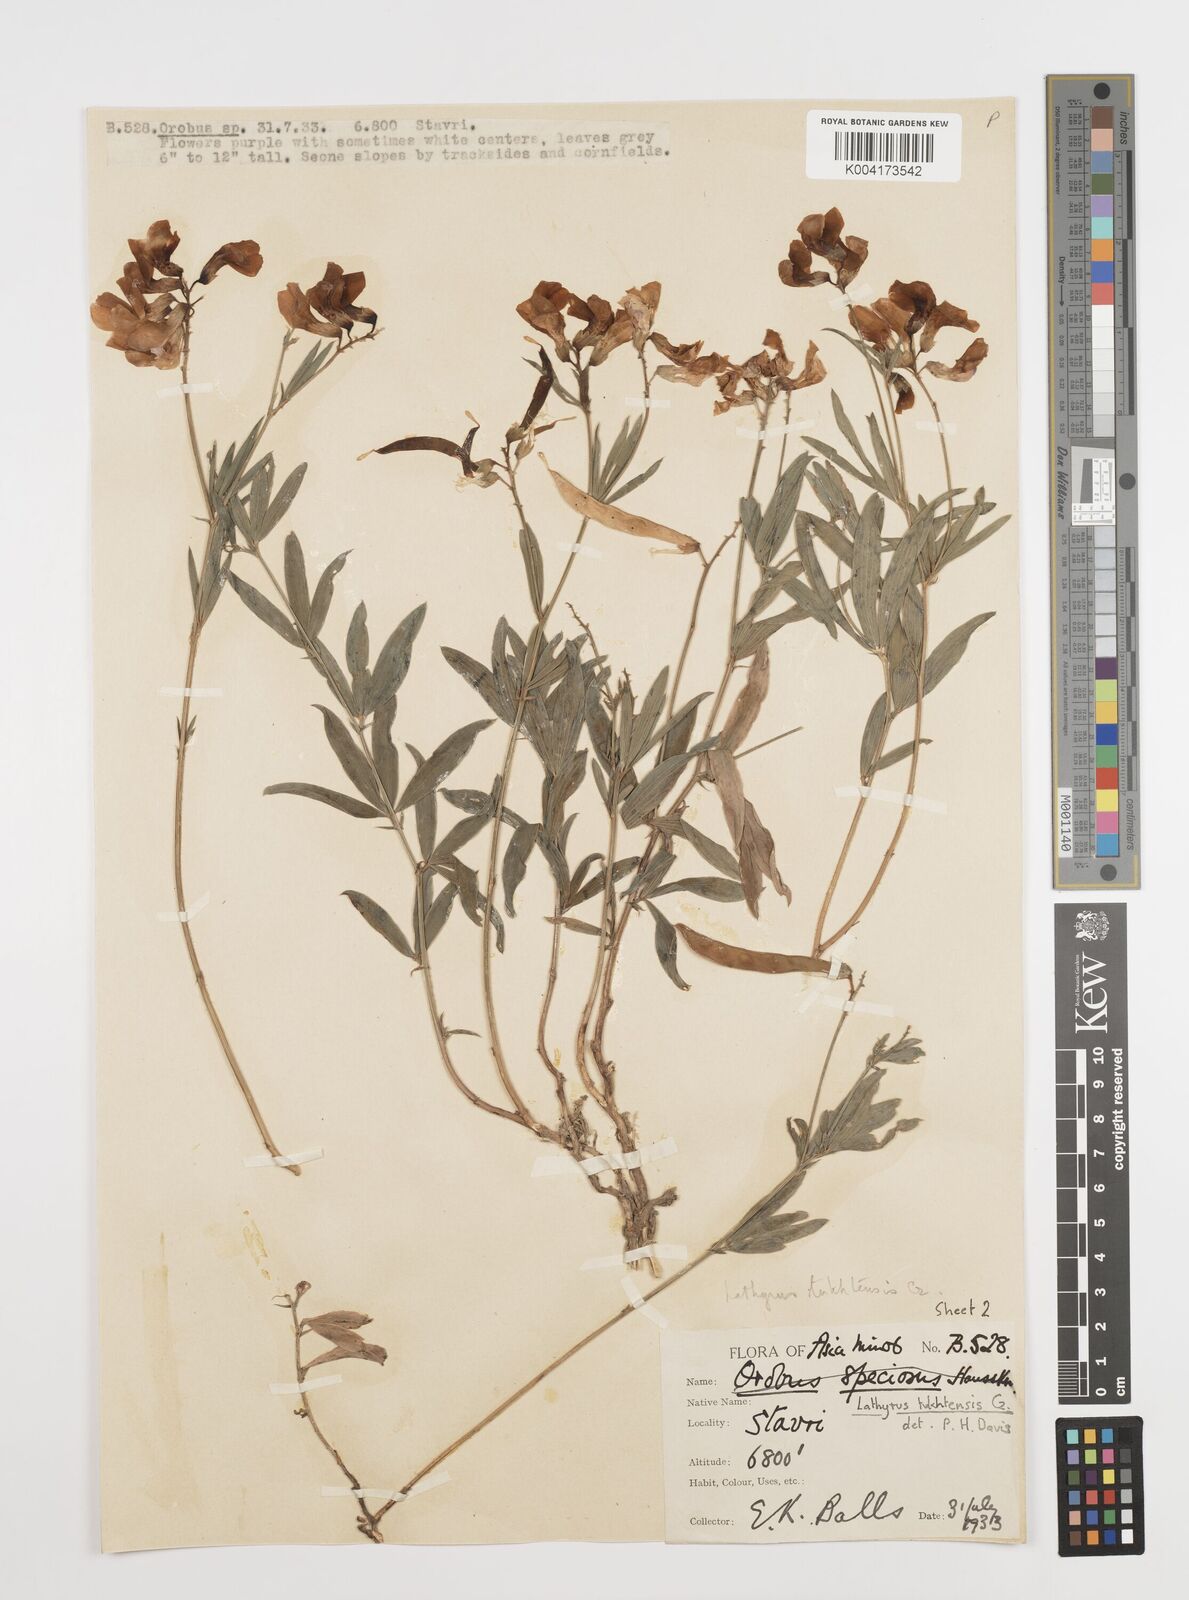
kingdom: Plantae
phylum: Tracheophyta
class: Magnoliopsida
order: Fabales
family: Fabaceae
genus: Lathyrus
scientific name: Lathyrus tukhtensis
